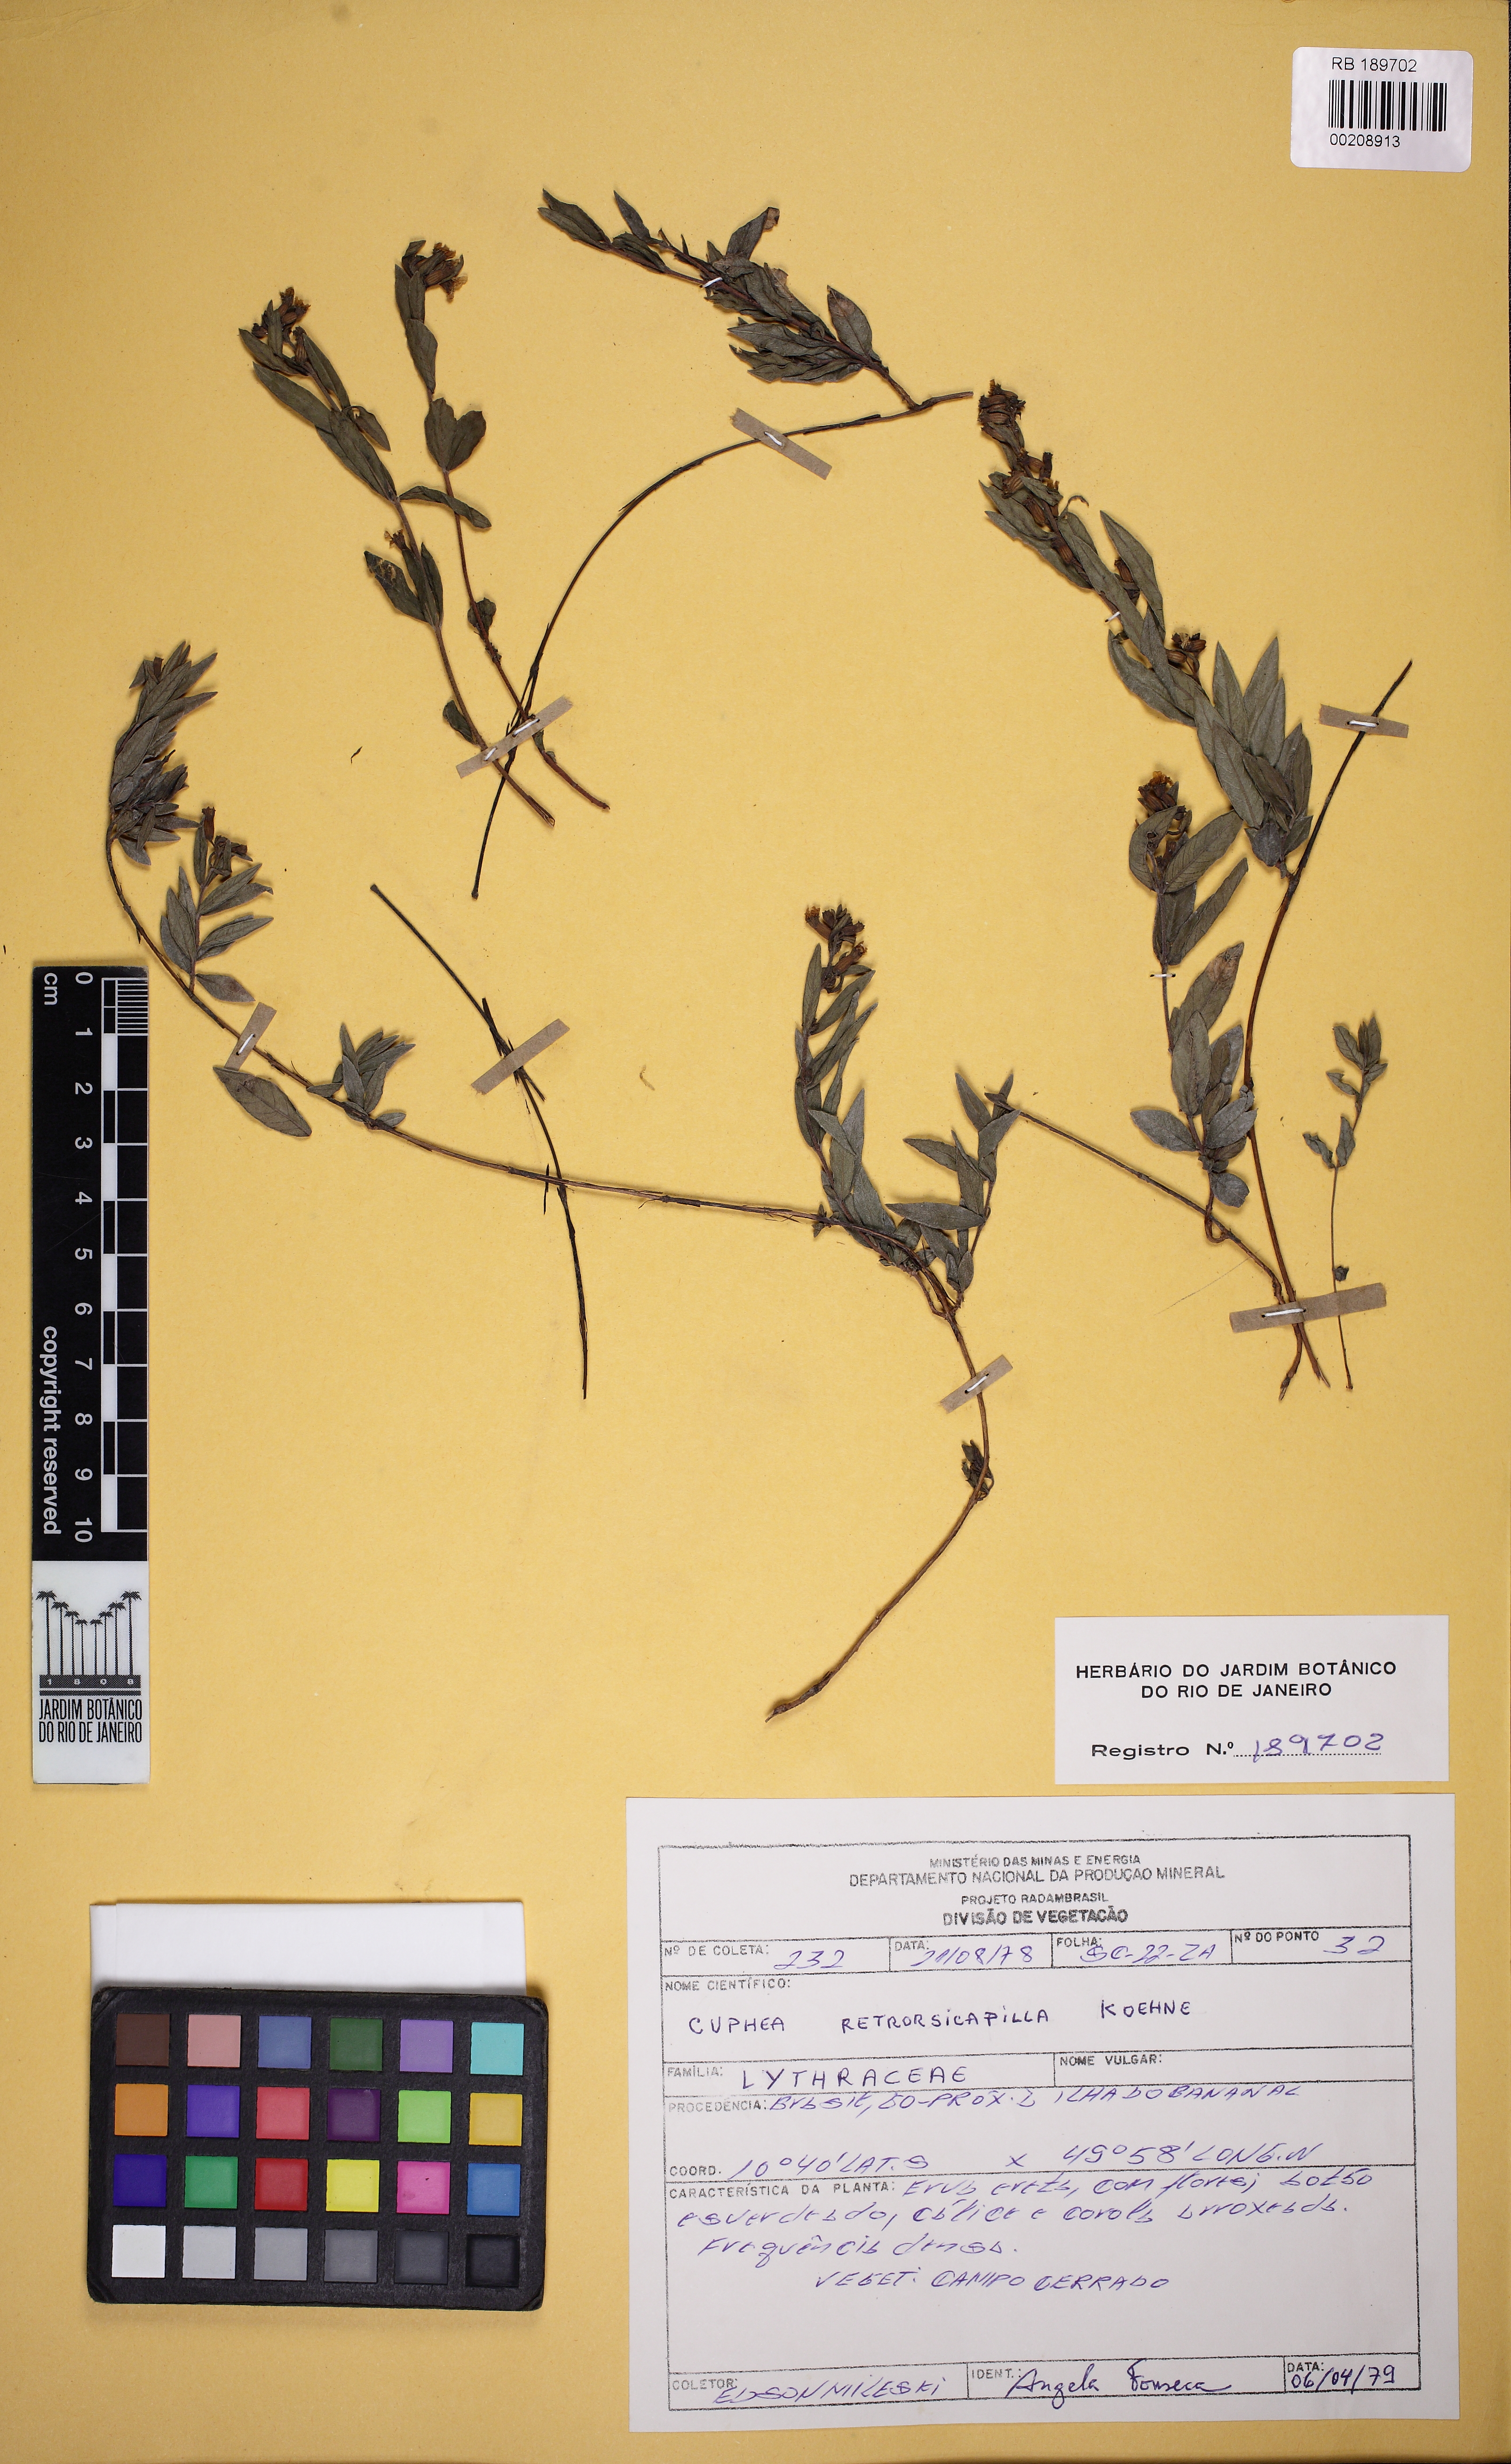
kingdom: Plantae
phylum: Tracheophyta
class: Magnoliopsida
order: Myrtales
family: Lythraceae
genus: Cuphea
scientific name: Cuphea retrorsicapilla
